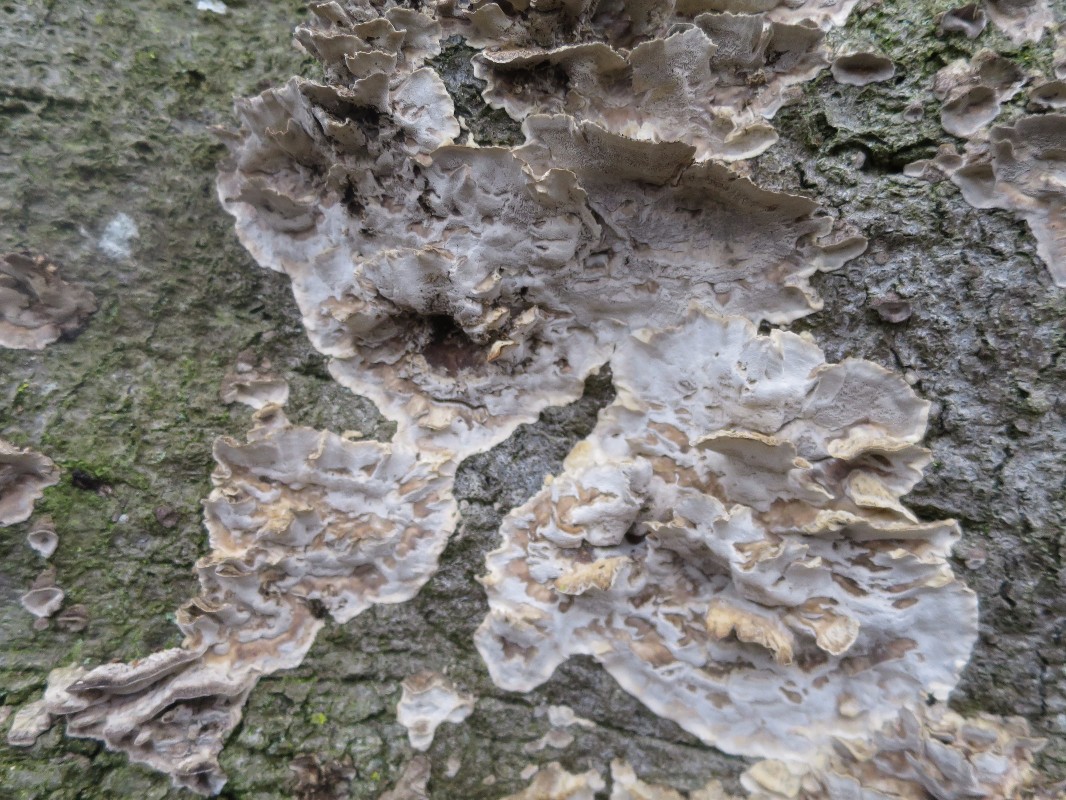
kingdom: Fungi
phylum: Basidiomycota
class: Agaricomycetes
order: Polyporales
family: Phanerochaetaceae
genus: Bjerkandera
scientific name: Bjerkandera adusta
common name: sveden sodporesvamp
